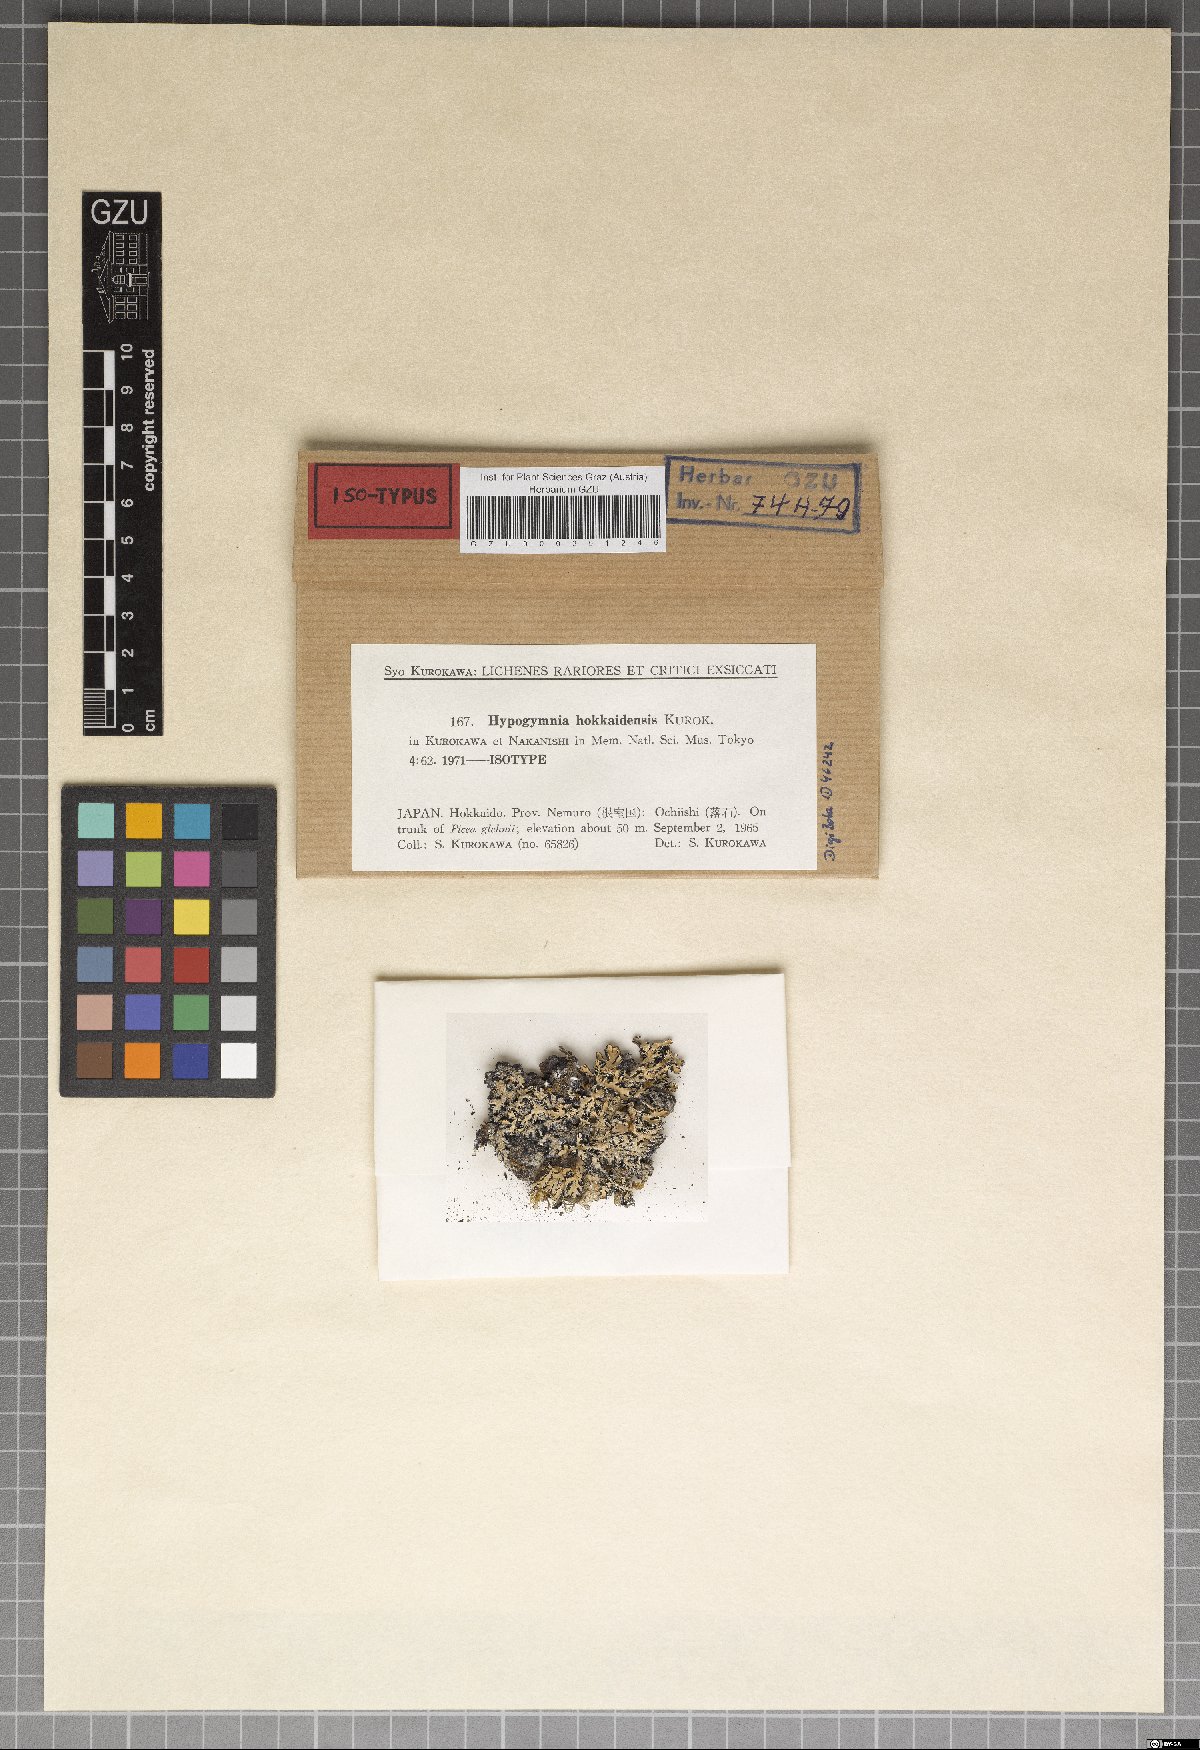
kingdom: Fungi
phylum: Ascomycota
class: Lecanoromycetes
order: Lecanorales
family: Parmeliaceae
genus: Hypogymnia
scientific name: Hypogymnia hokkaidensis
